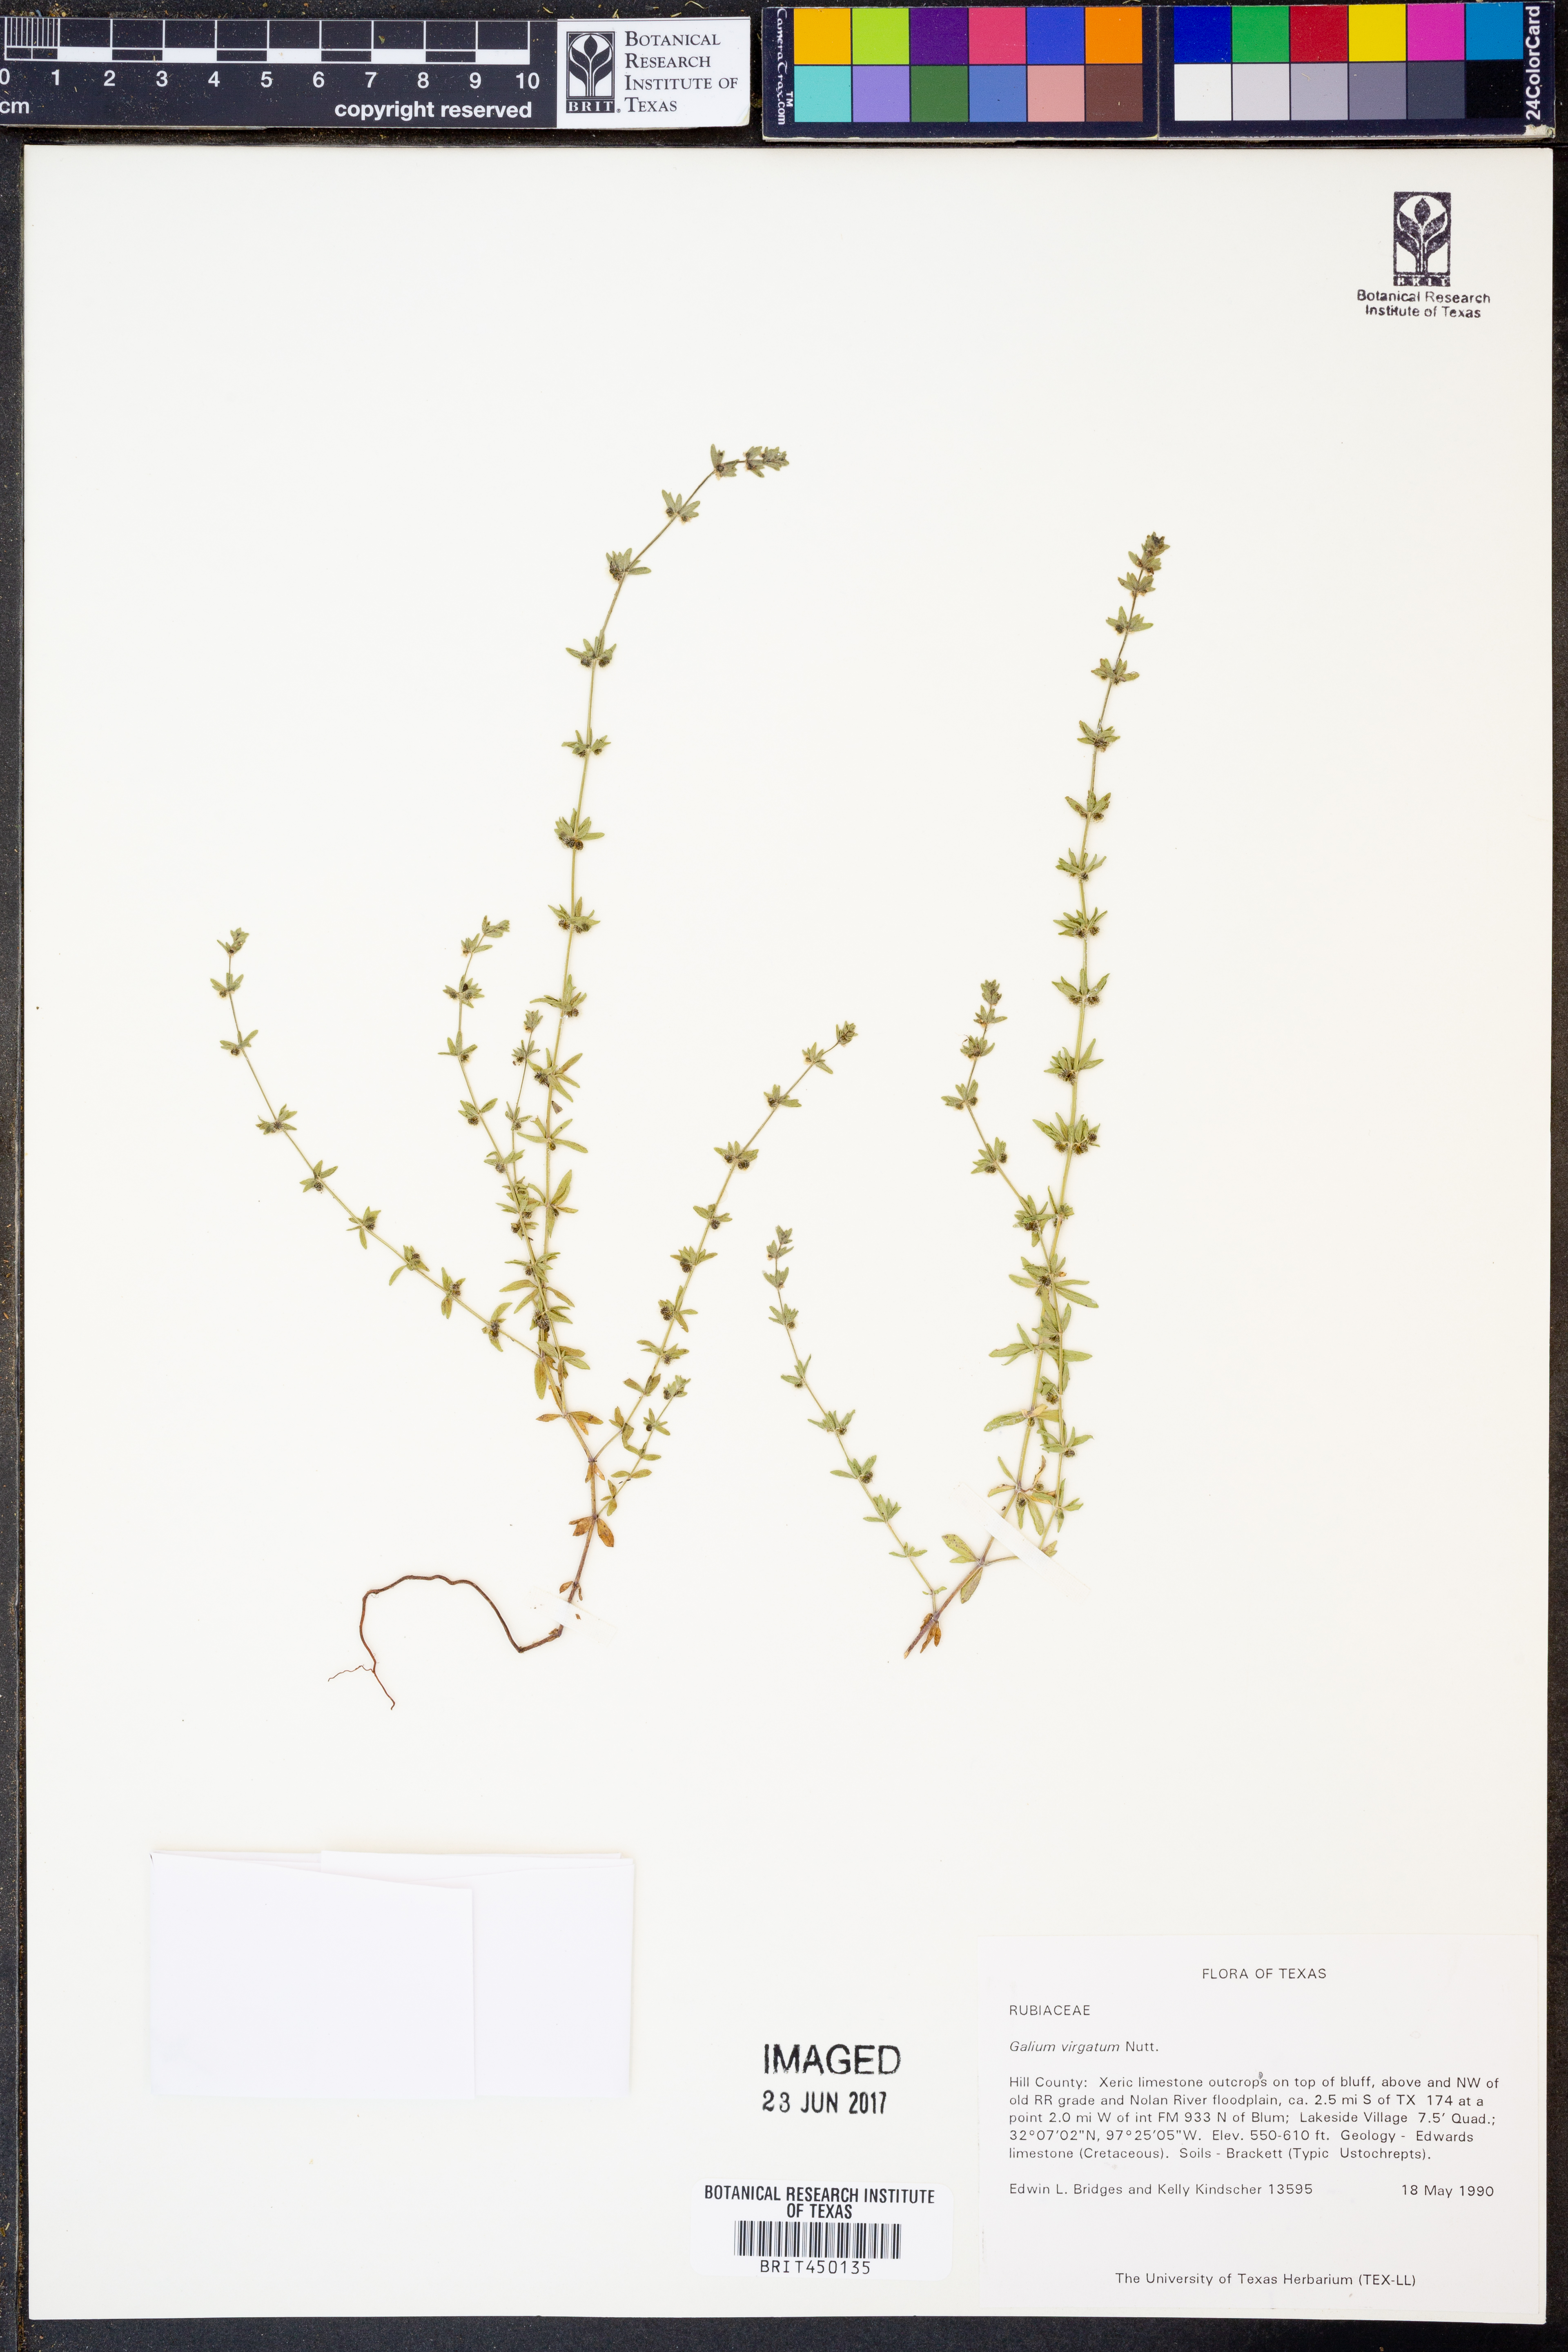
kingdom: Plantae
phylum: Tracheophyta
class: Magnoliopsida
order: Gentianales
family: Rubiaceae
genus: Galium
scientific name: Galium virgatum
